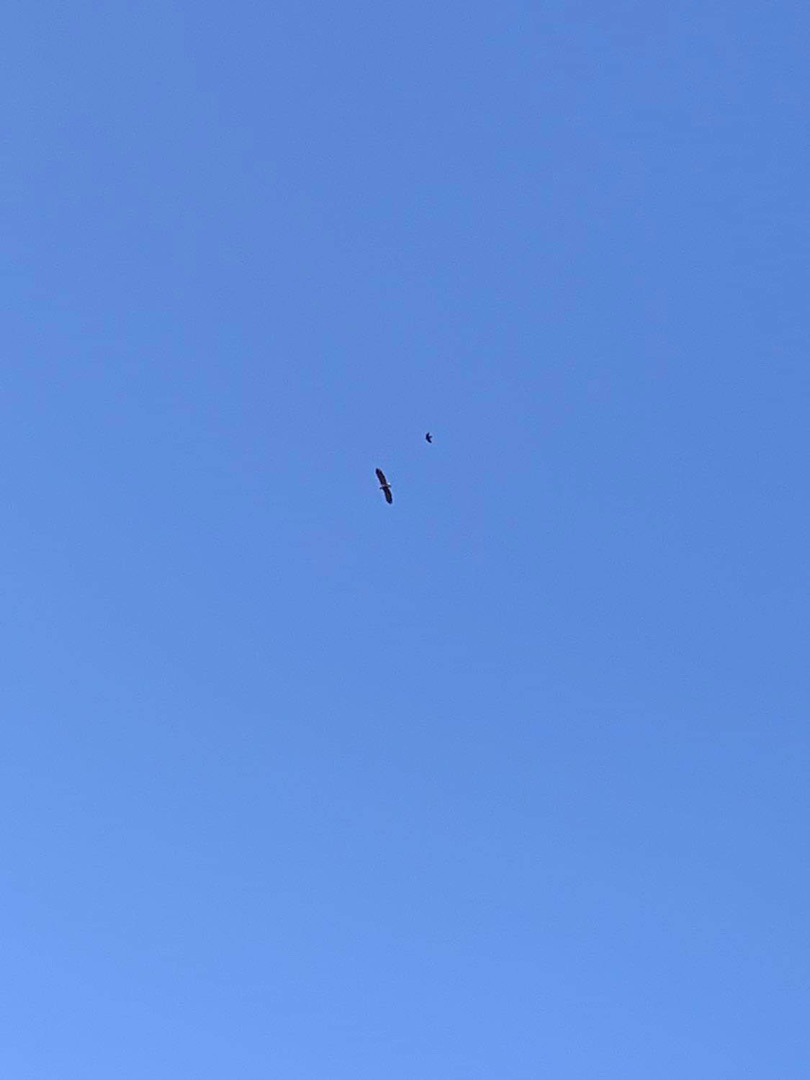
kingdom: Animalia
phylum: Chordata
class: Aves
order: Accipitriformes
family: Accipitridae
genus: Haliaeetus
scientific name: Haliaeetus albicilla
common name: Havørn
